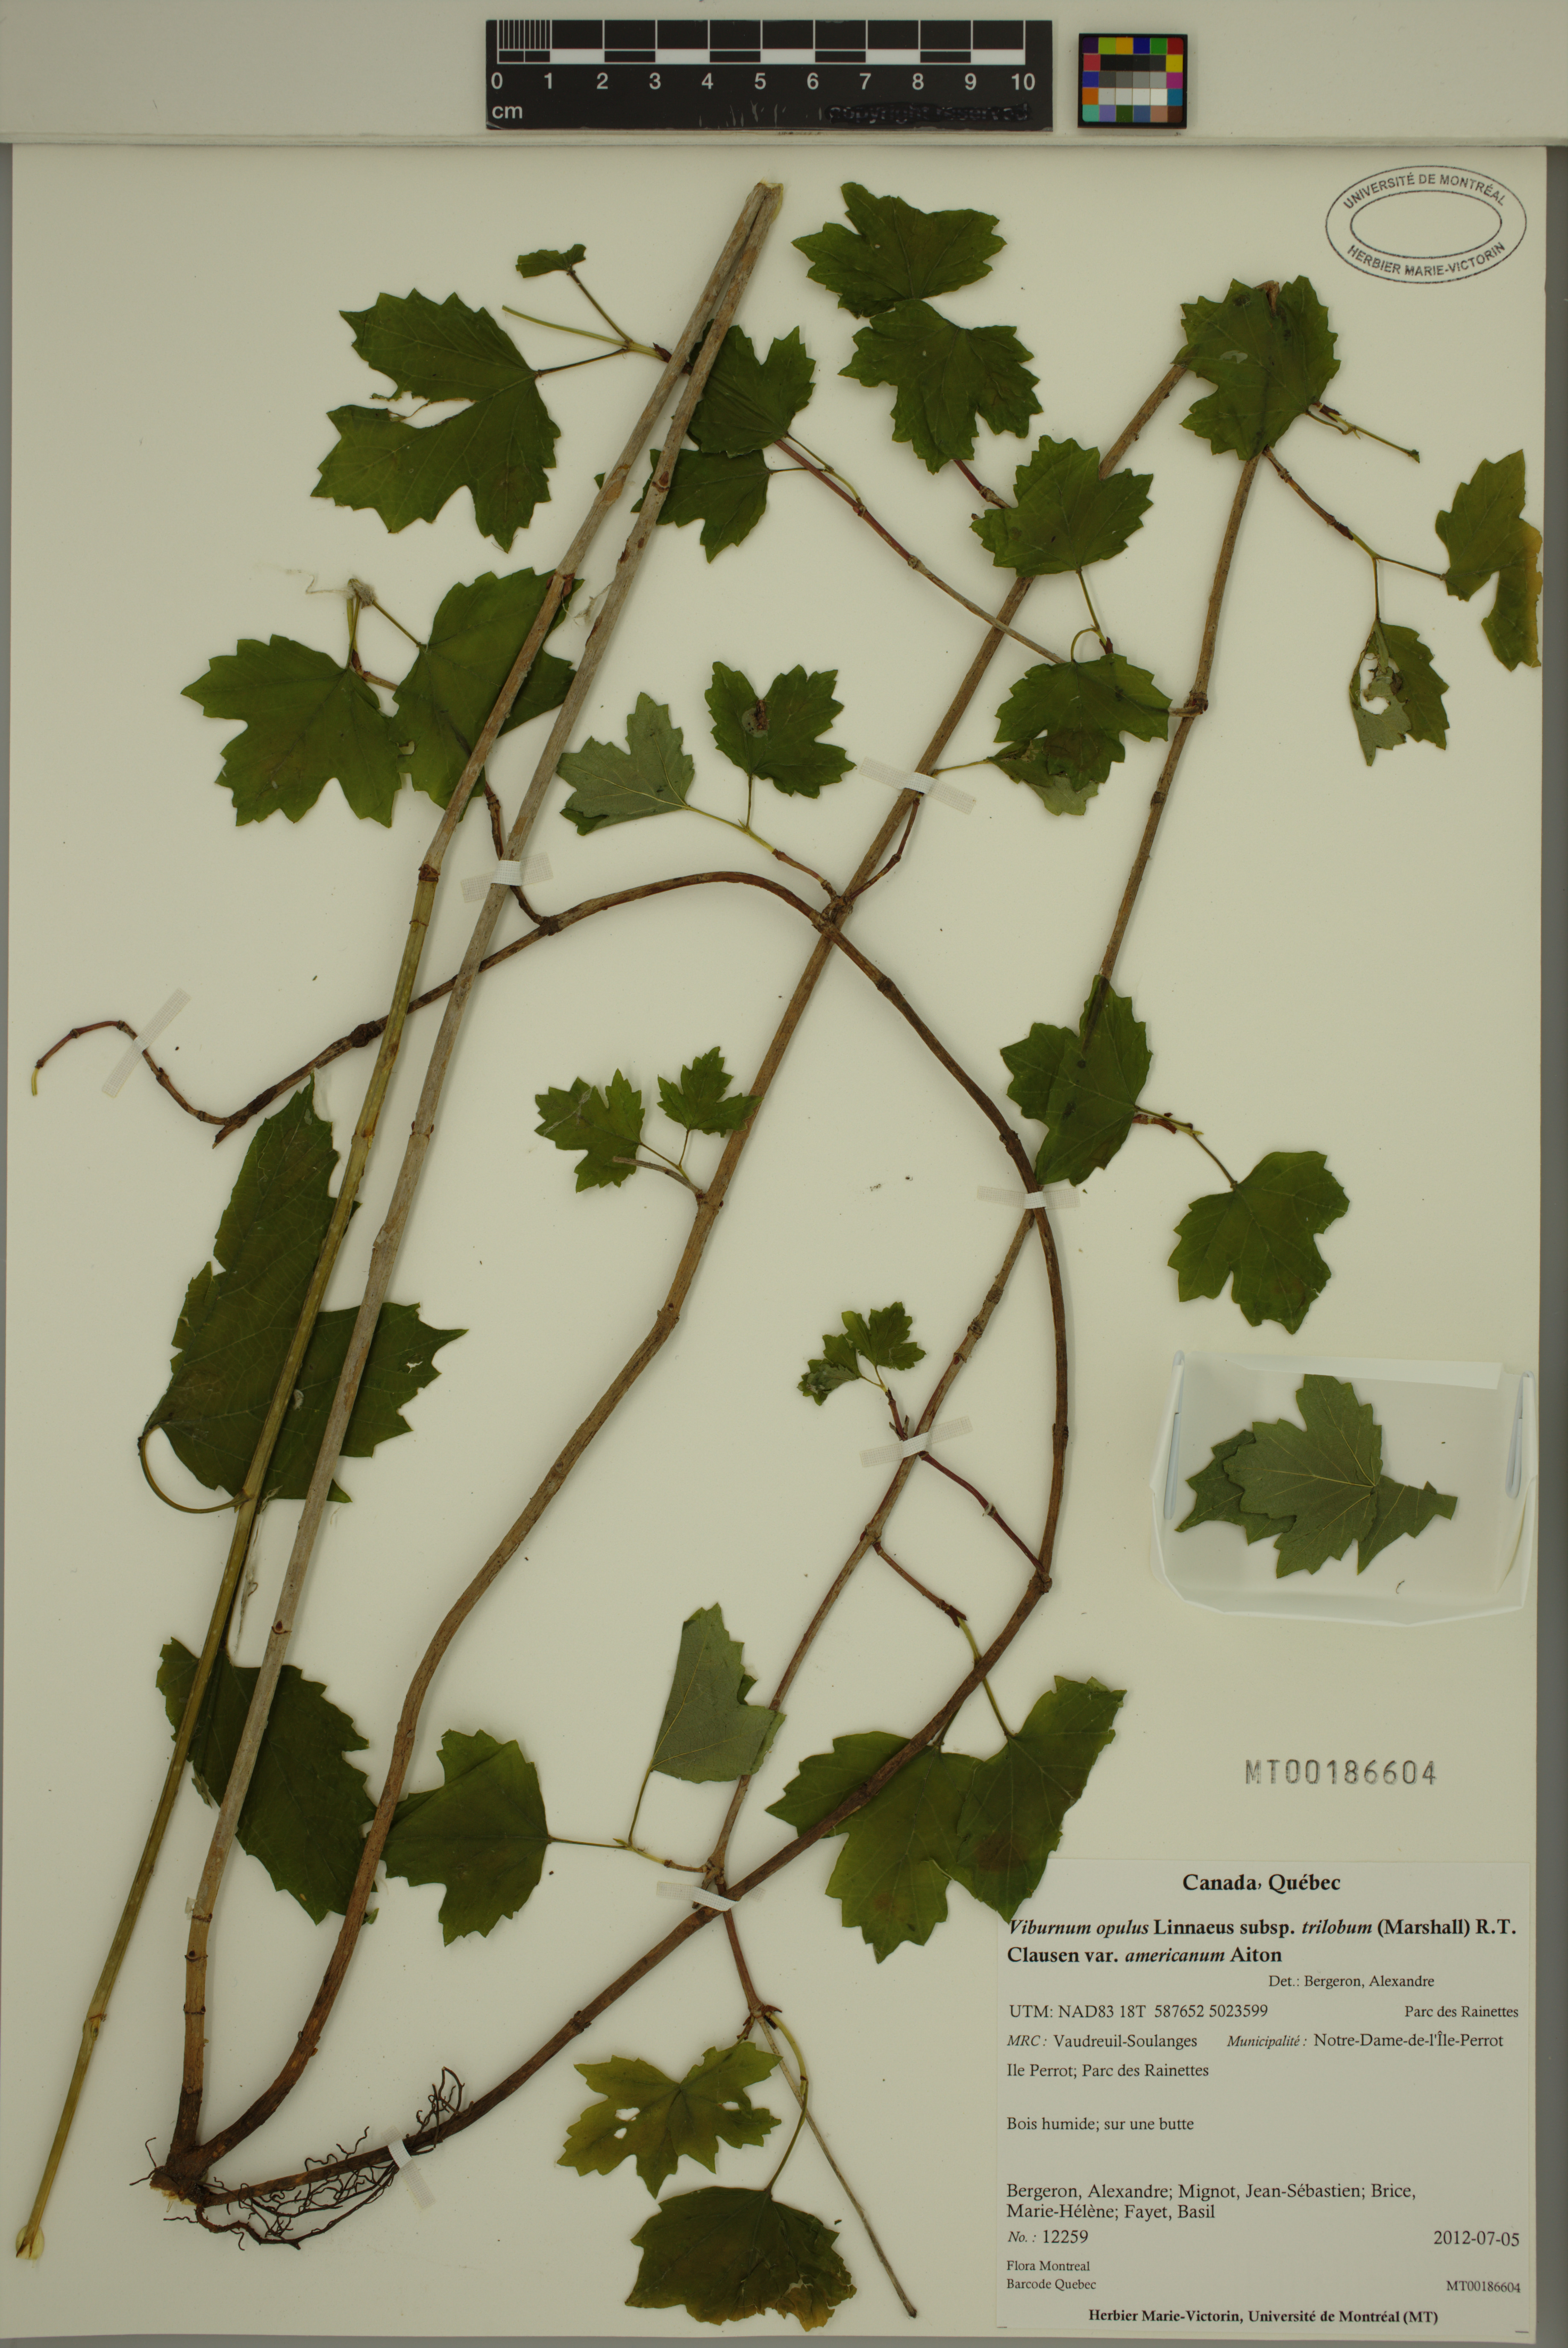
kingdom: Plantae
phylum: Tracheophyta
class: Magnoliopsida
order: Dipsacales
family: Viburnaceae
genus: Viburnum
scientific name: Viburnum trilobum
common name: American cranberrybush
